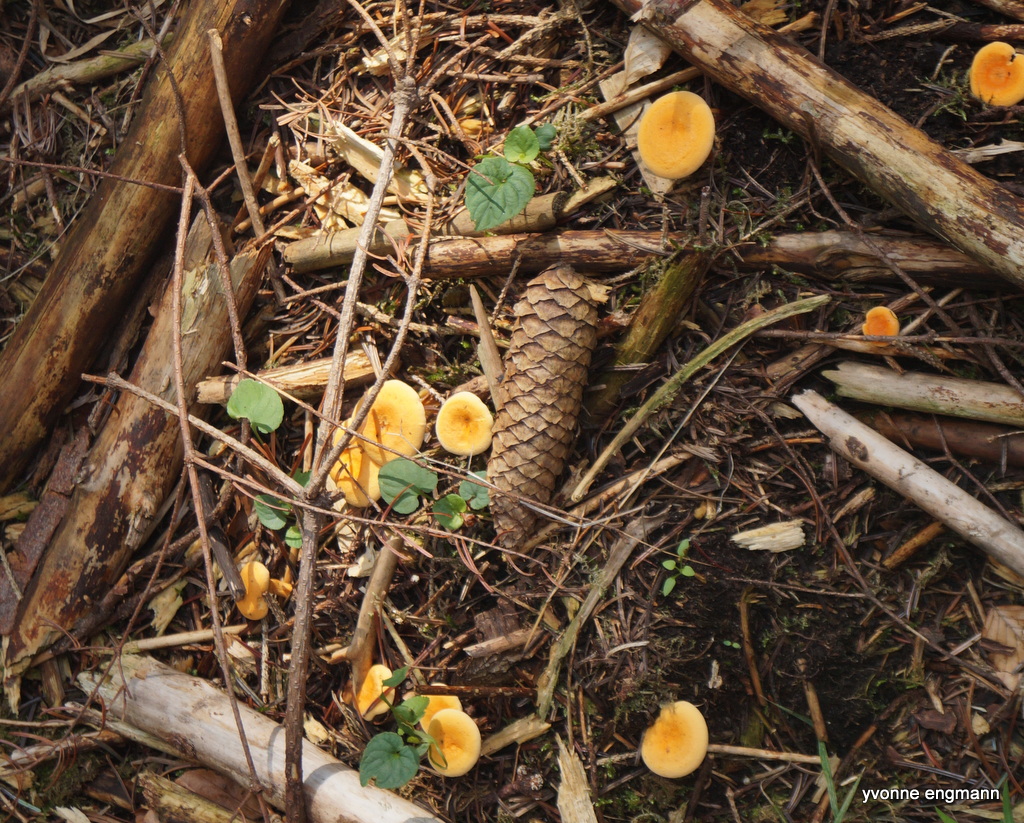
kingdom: Fungi
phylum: Basidiomycota
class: Agaricomycetes
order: Boletales
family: Hygrophoropsidaceae
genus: Hygrophoropsis
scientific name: Hygrophoropsis aurantiaca
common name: almindelig orangekantarel
